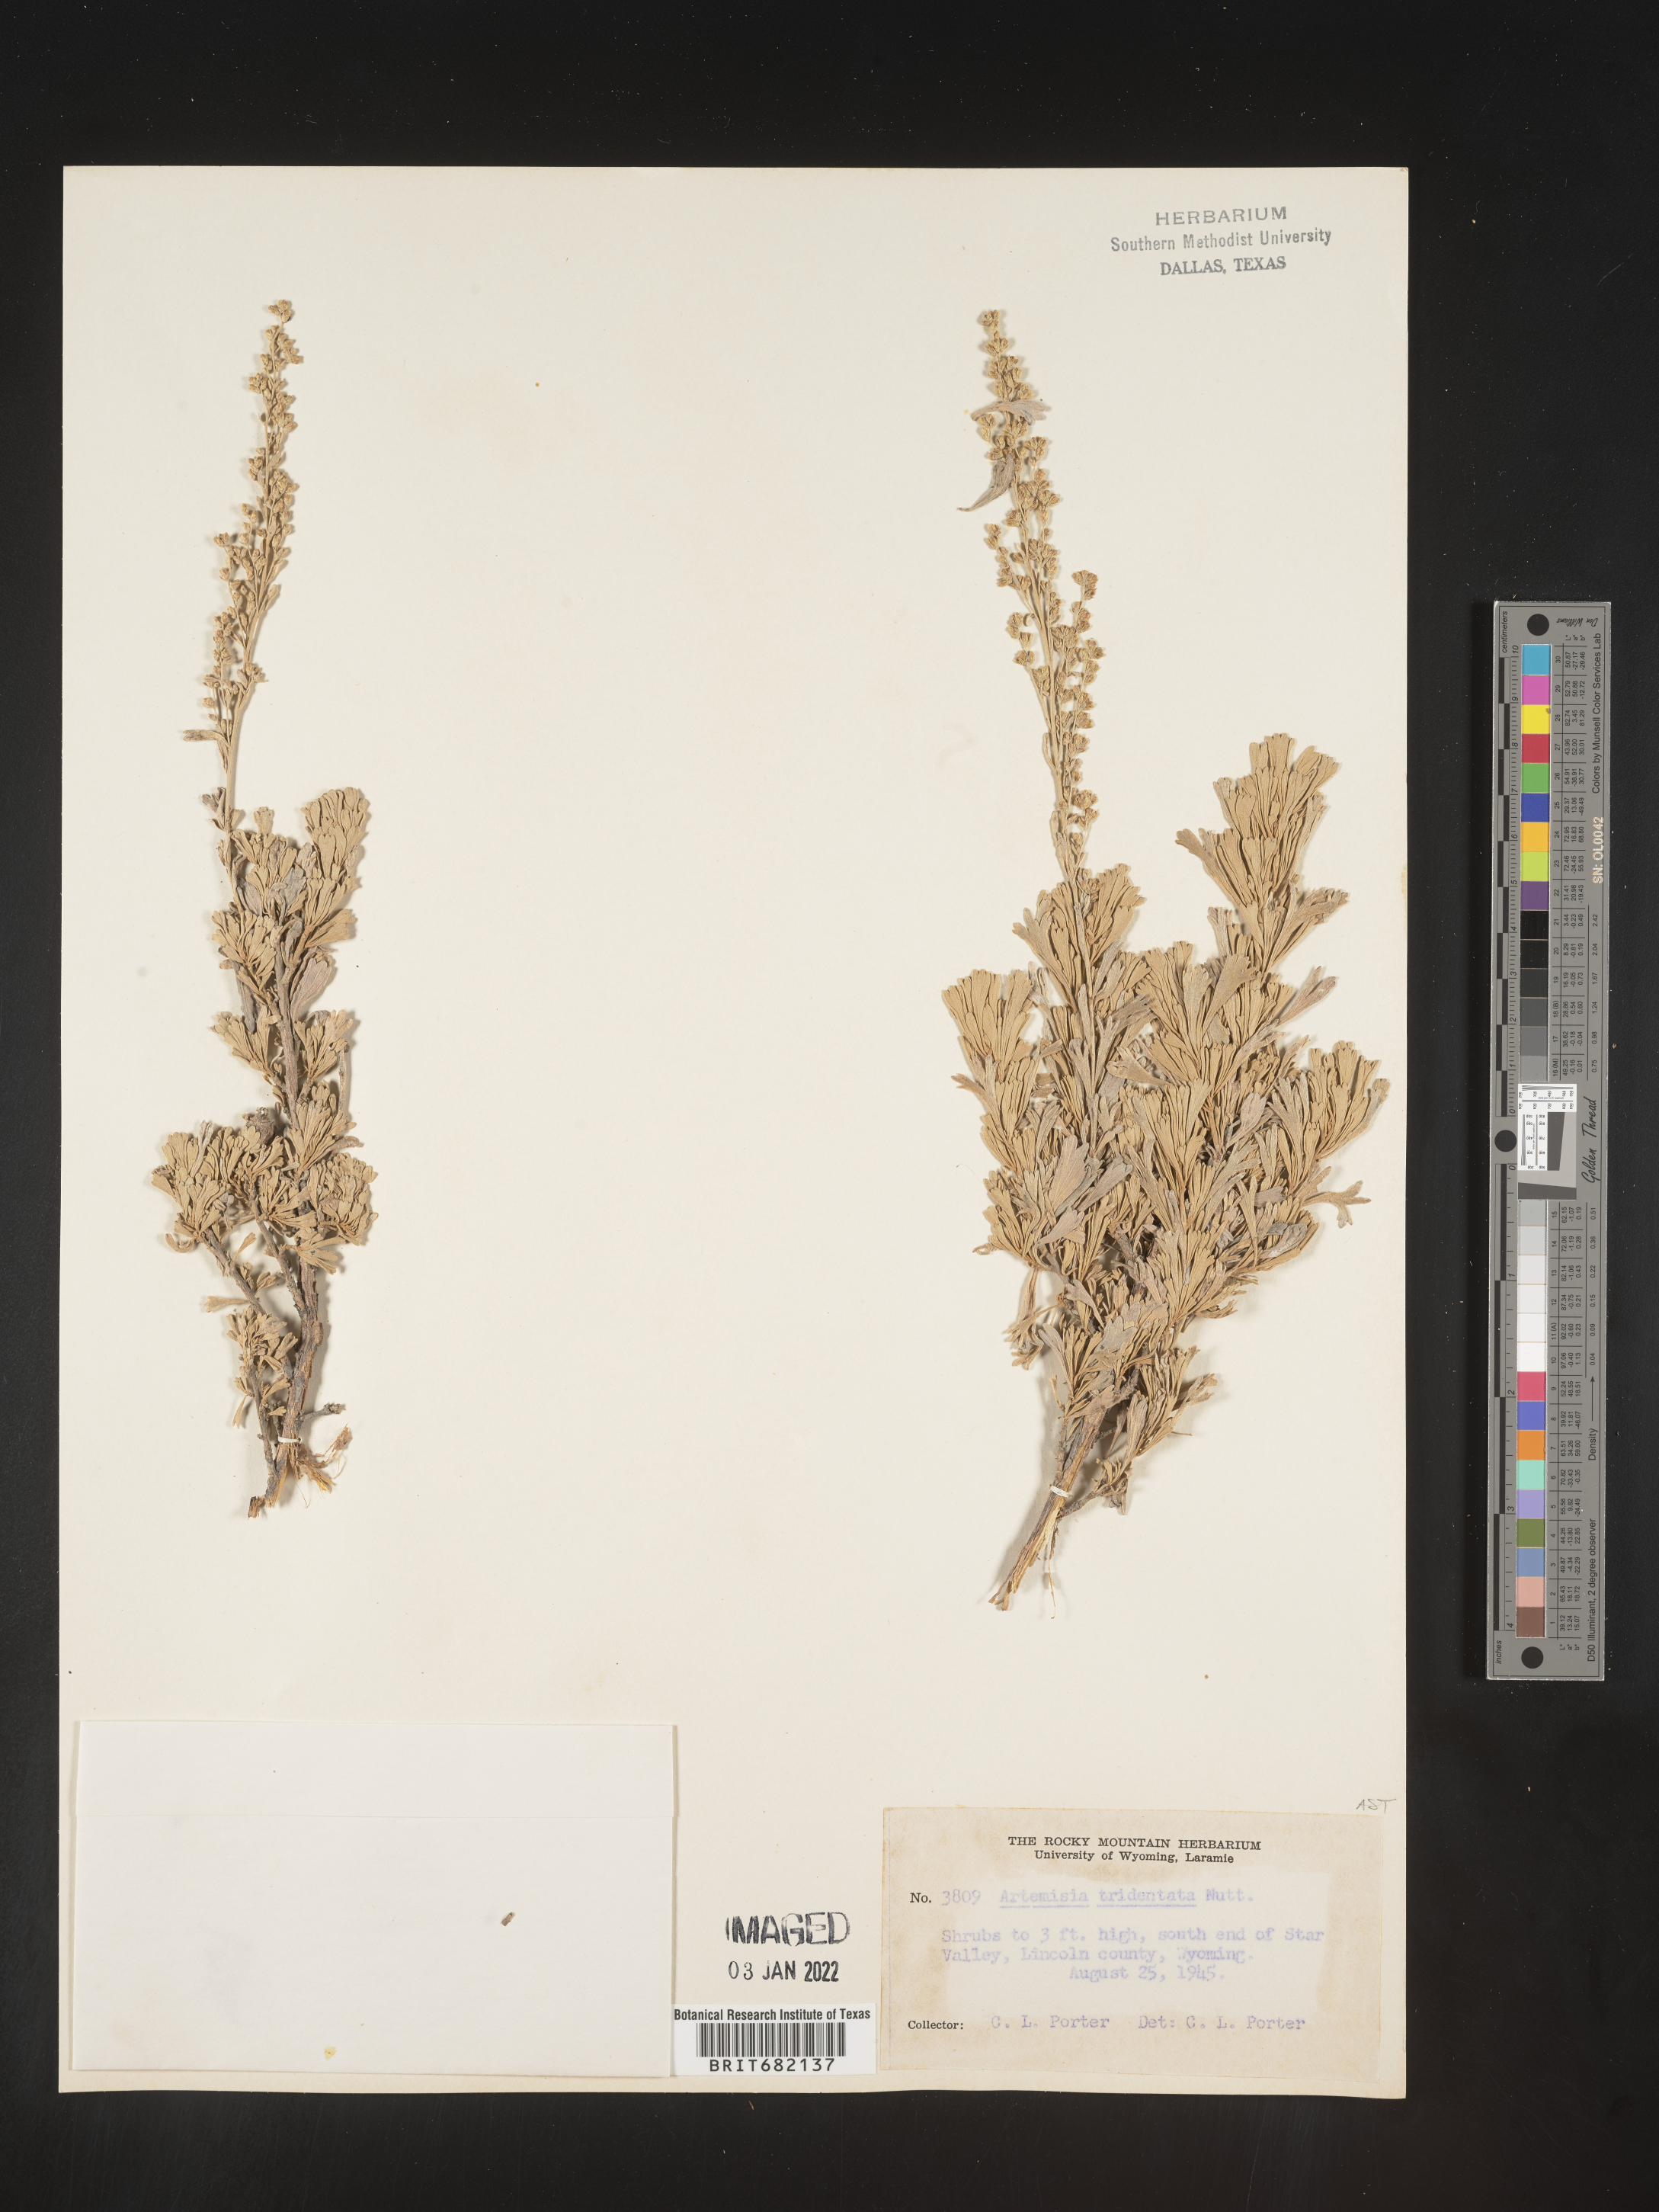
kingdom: Plantae
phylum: Tracheophyta
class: Magnoliopsida
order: Asterales
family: Asteraceae
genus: Artemisia
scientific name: Artemisia tridentata
